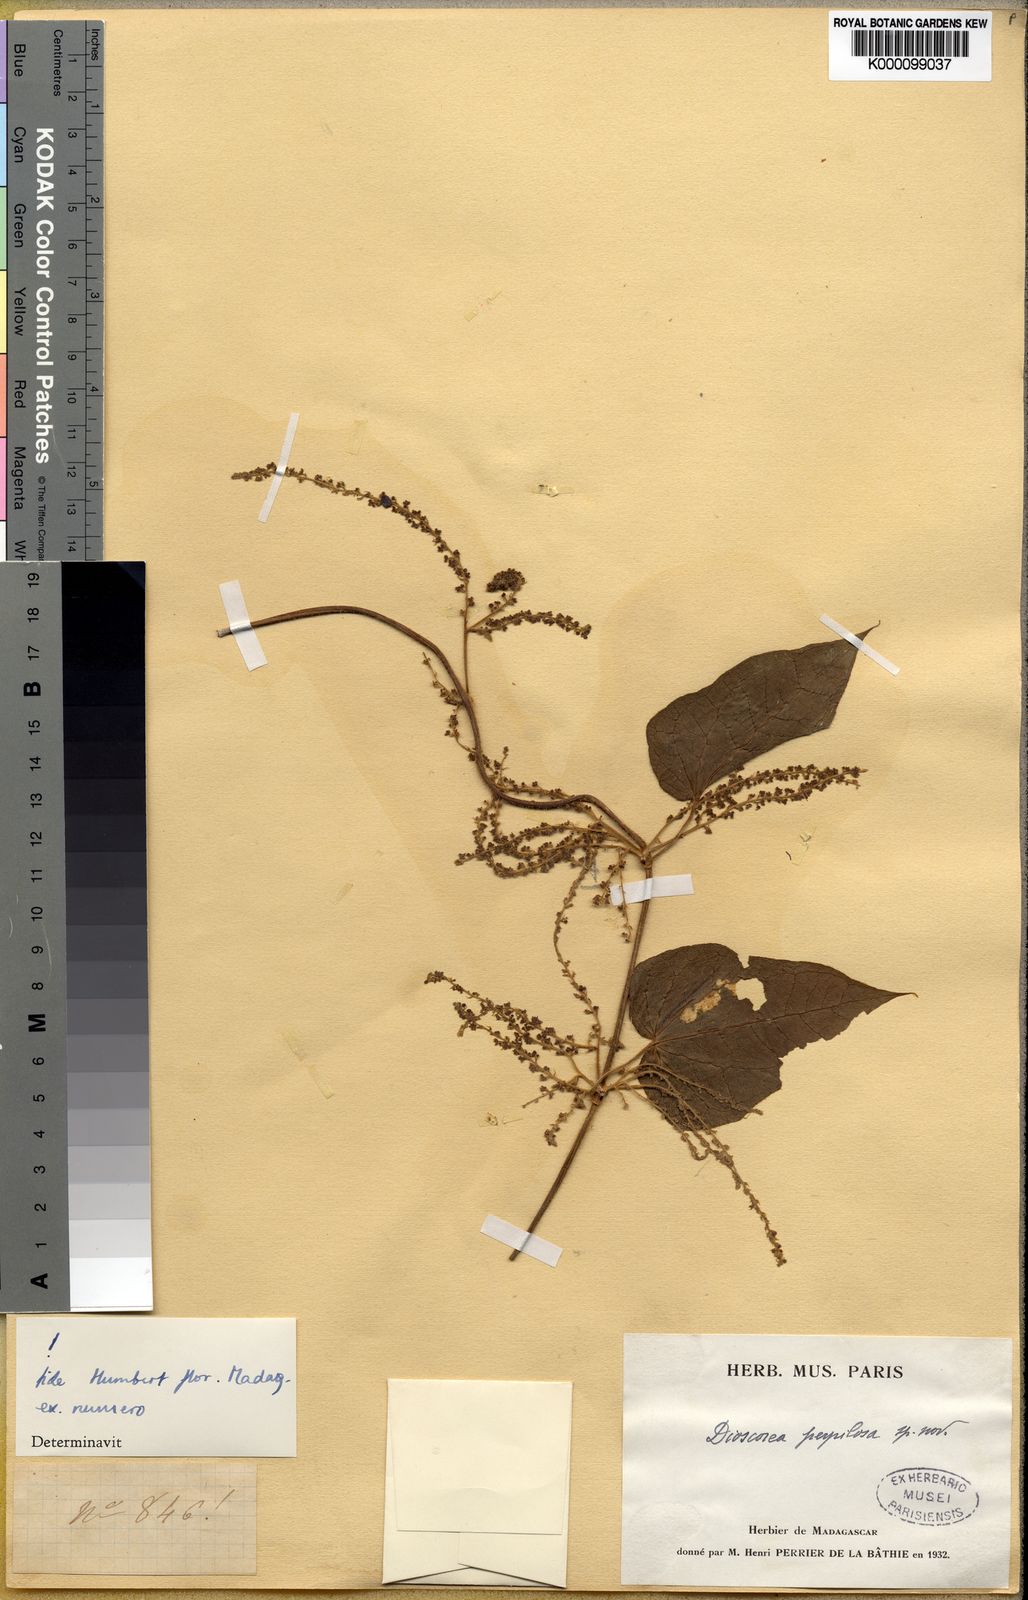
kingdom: Plantae
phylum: Tracheophyta
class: Liliopsida
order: Dioscoreales
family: Dioscoreaceae
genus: Dioscorea
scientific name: Dioscorea mamillata
